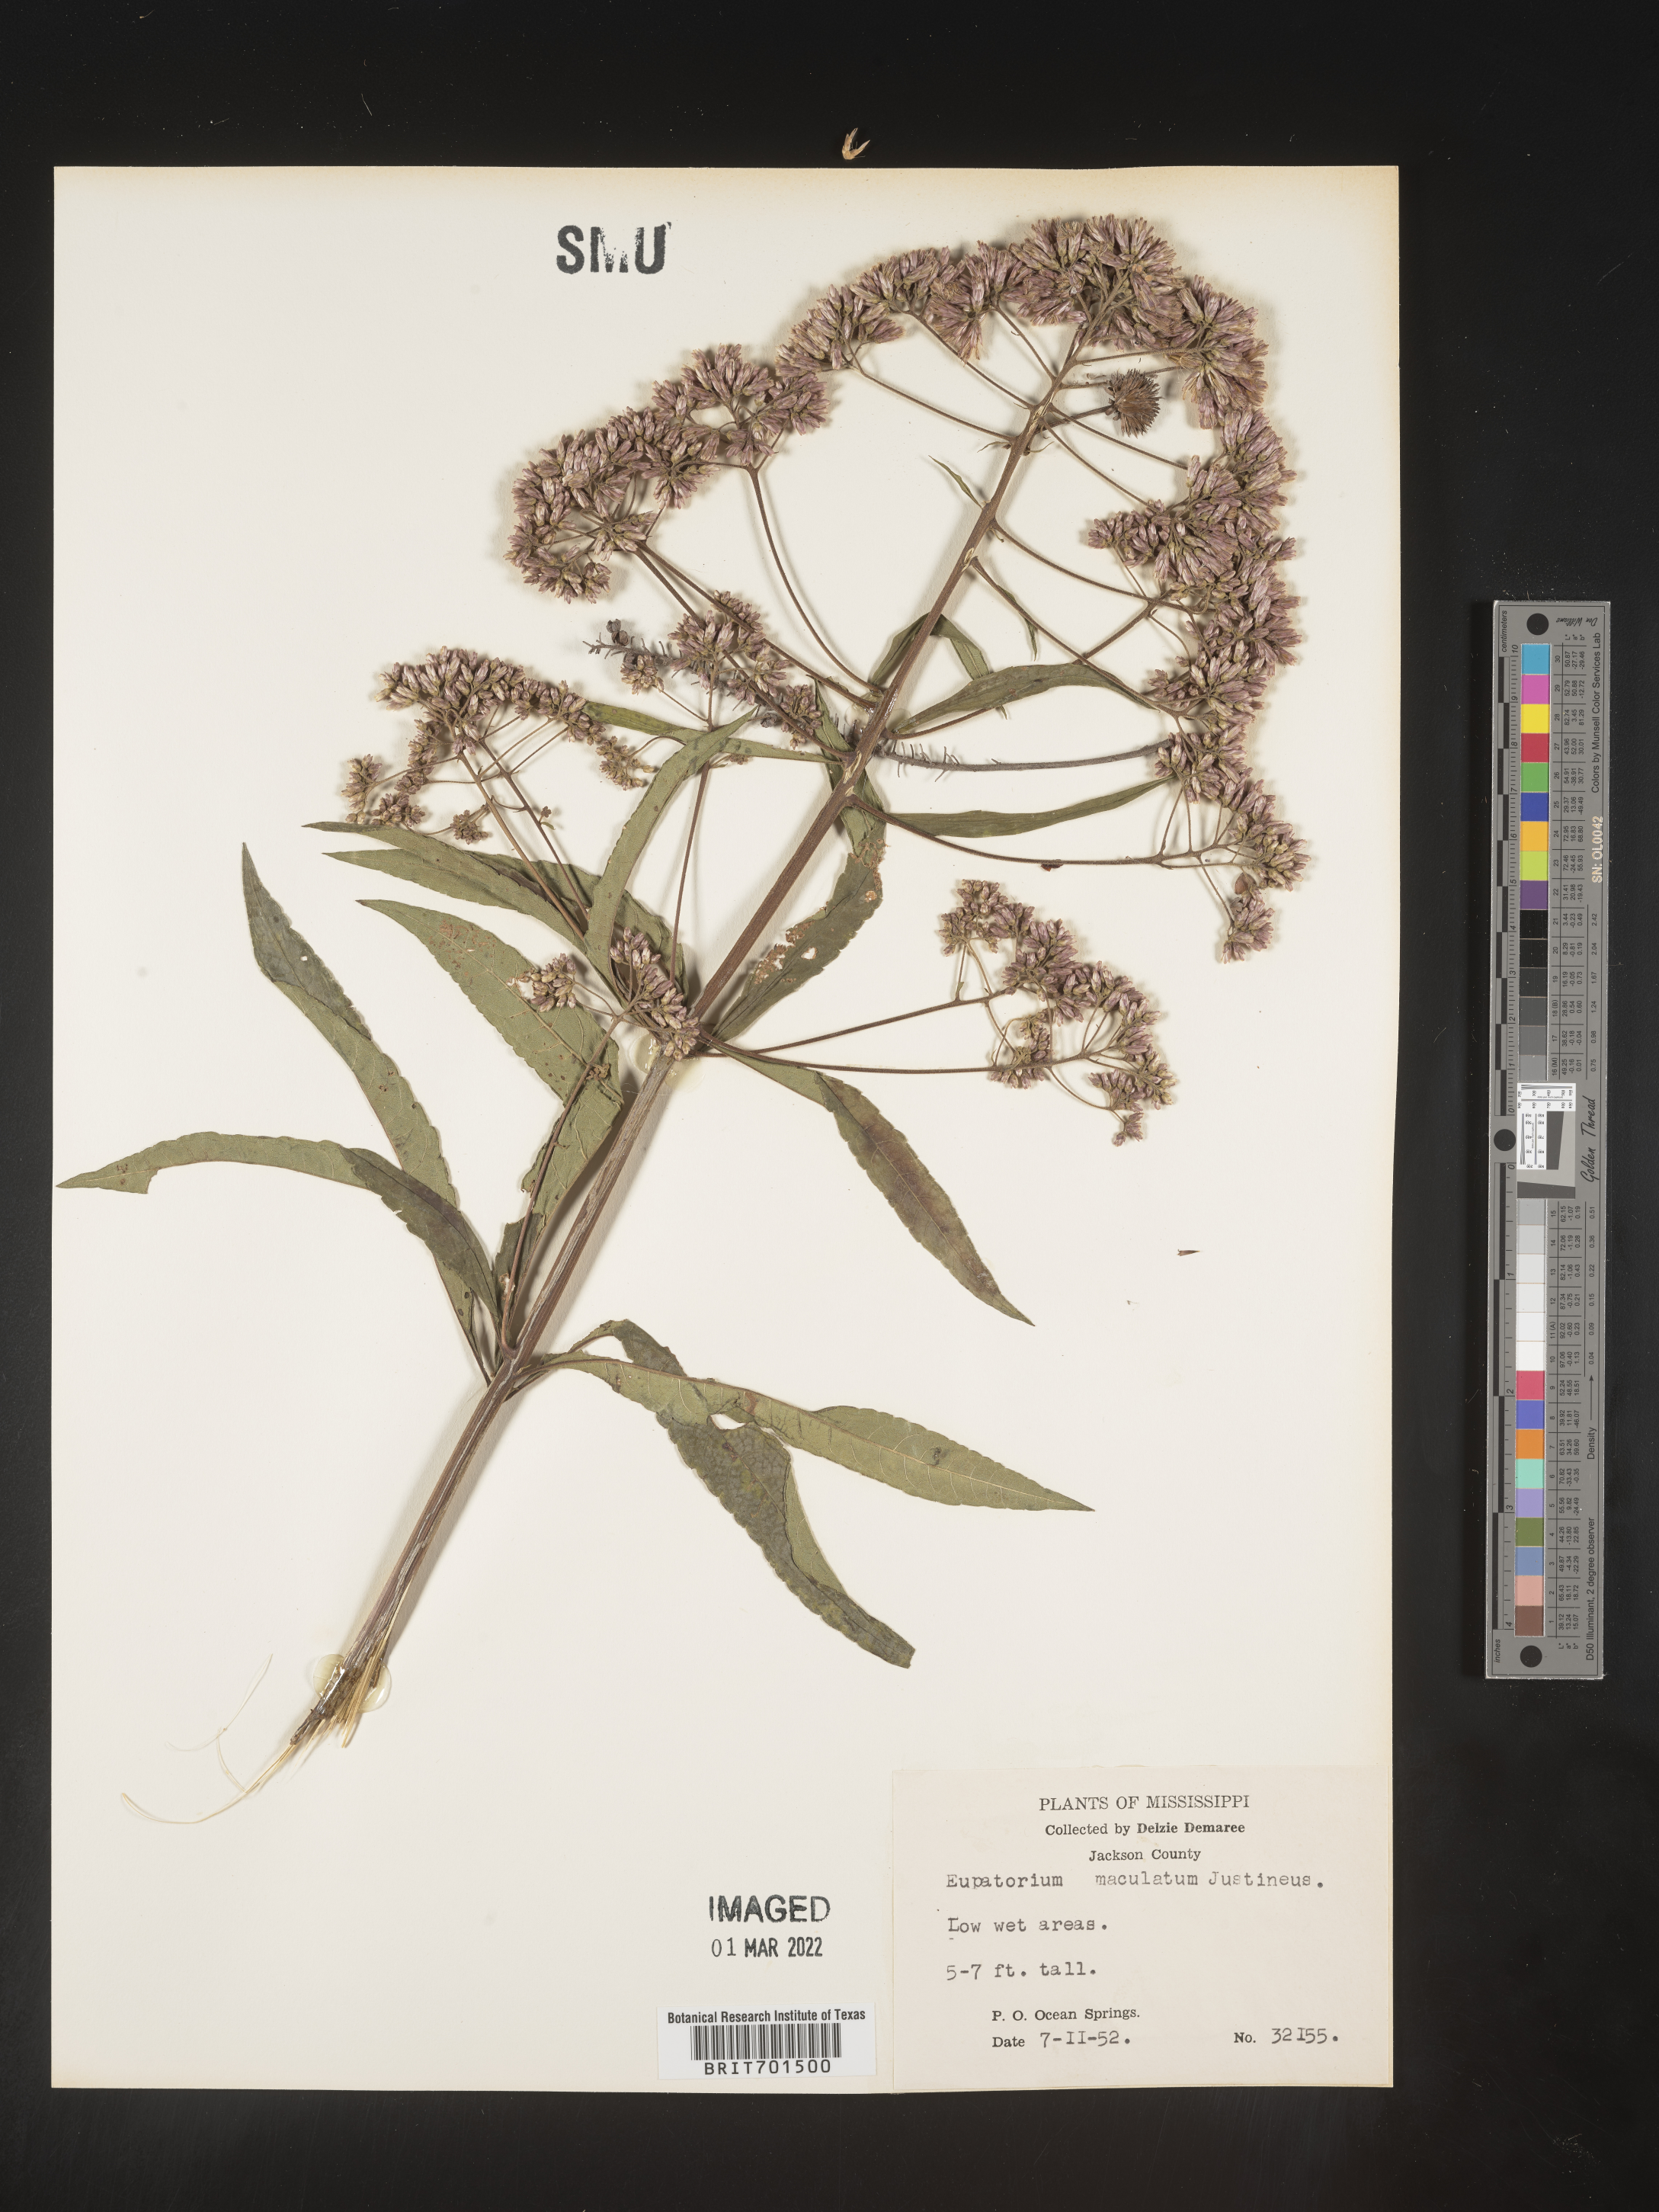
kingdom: Plantae
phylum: Tracheophyta
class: Magnoliopsida
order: Asterales
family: Asteraceae
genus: Eutrochium
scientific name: Eutrochium maculatum
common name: Spotted joe pye weed
